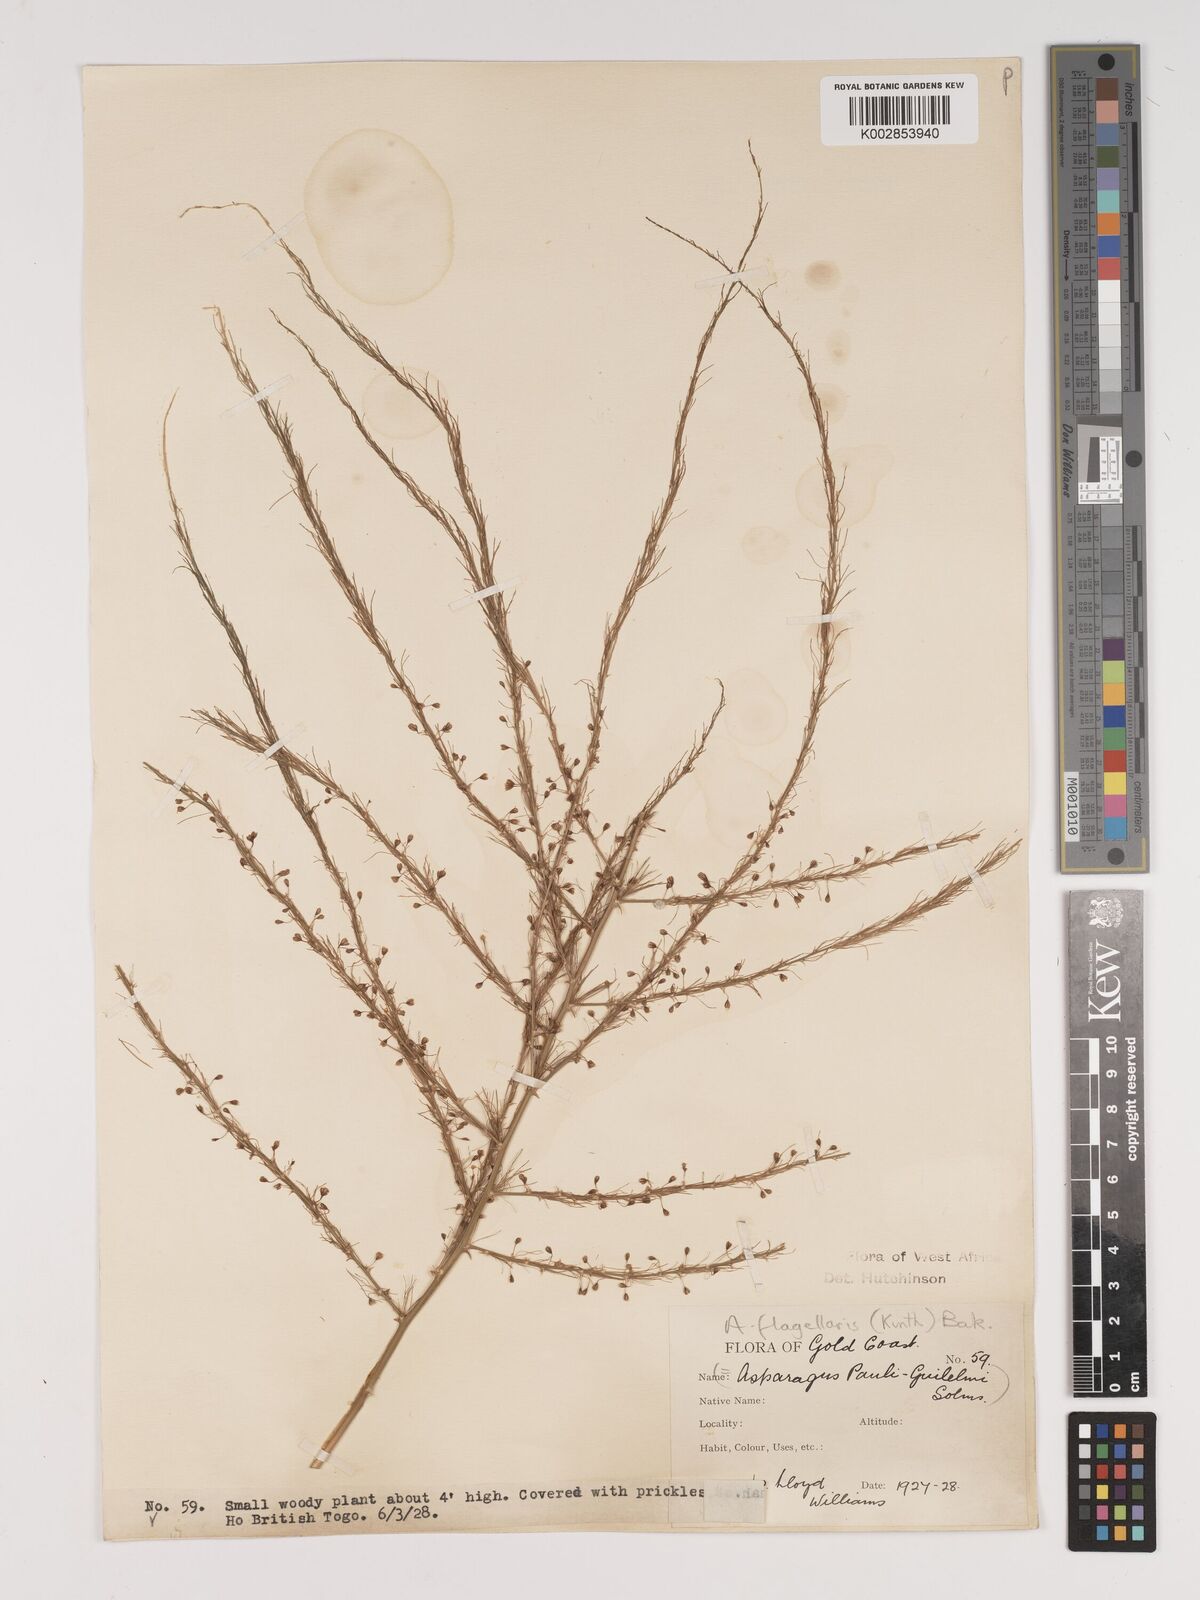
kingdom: Plantae
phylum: Tracheophyta
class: Liliopsida
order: Asparagales
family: Asparagaceae
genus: Asparagus
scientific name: Asparagus flagellaris
